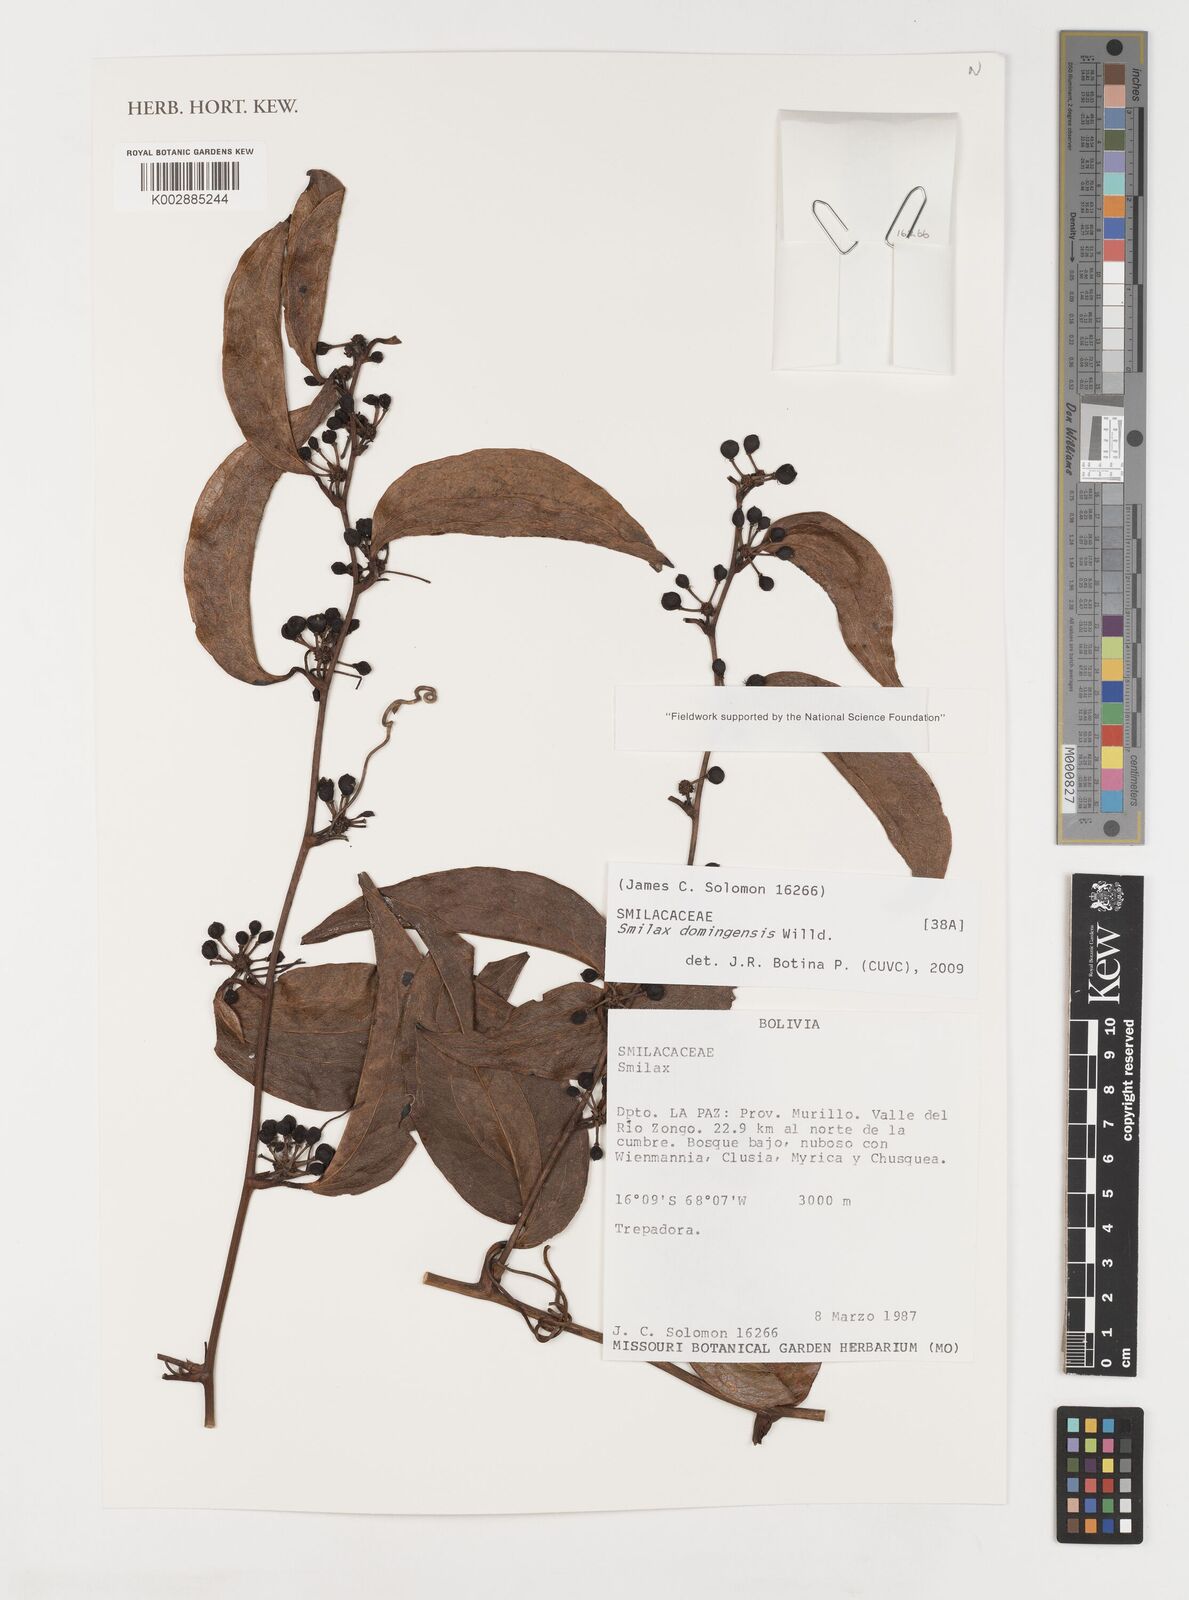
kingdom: Plantae
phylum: Tracheophyta
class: Liliopsida
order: Liliales
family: Smilacaceae
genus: Smilax
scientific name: Smilax domingensis
